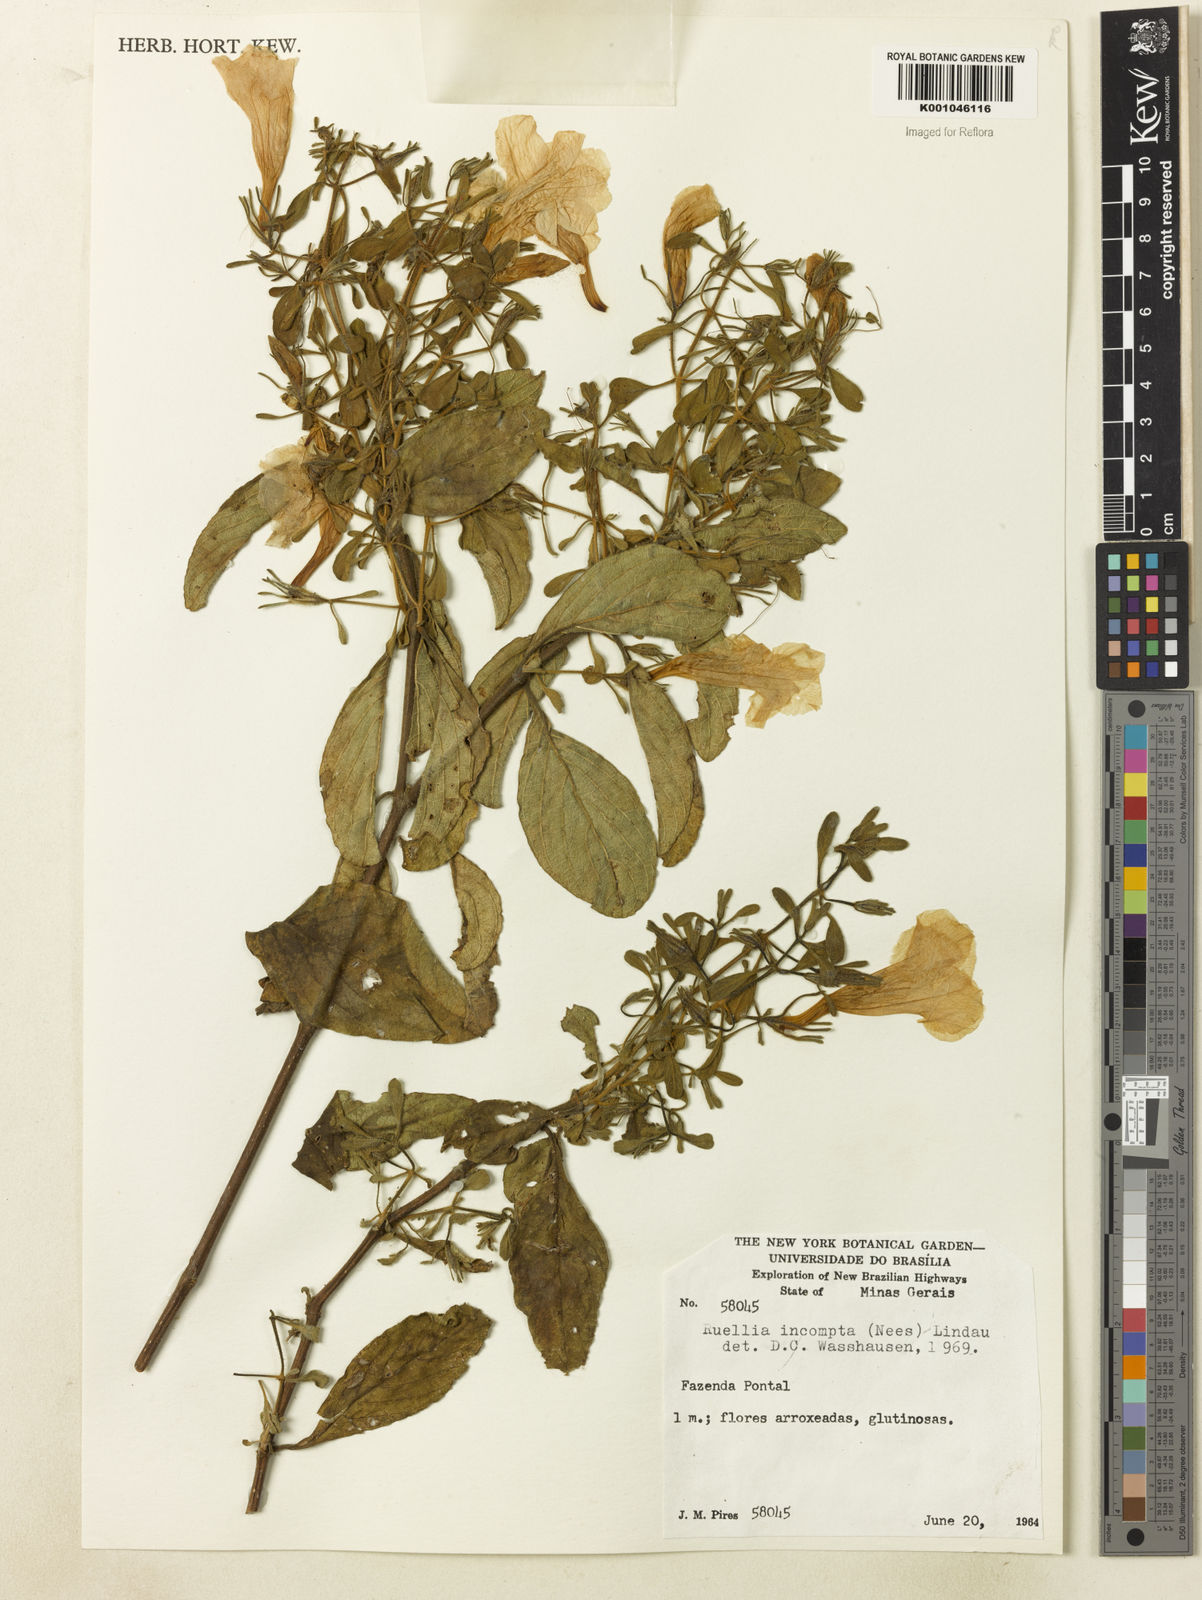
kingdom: Plantae
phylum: Tracheophyta
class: Magnoliopsida
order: Lamiales
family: Acanthaceae
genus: Ruellia
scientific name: Ruellia
